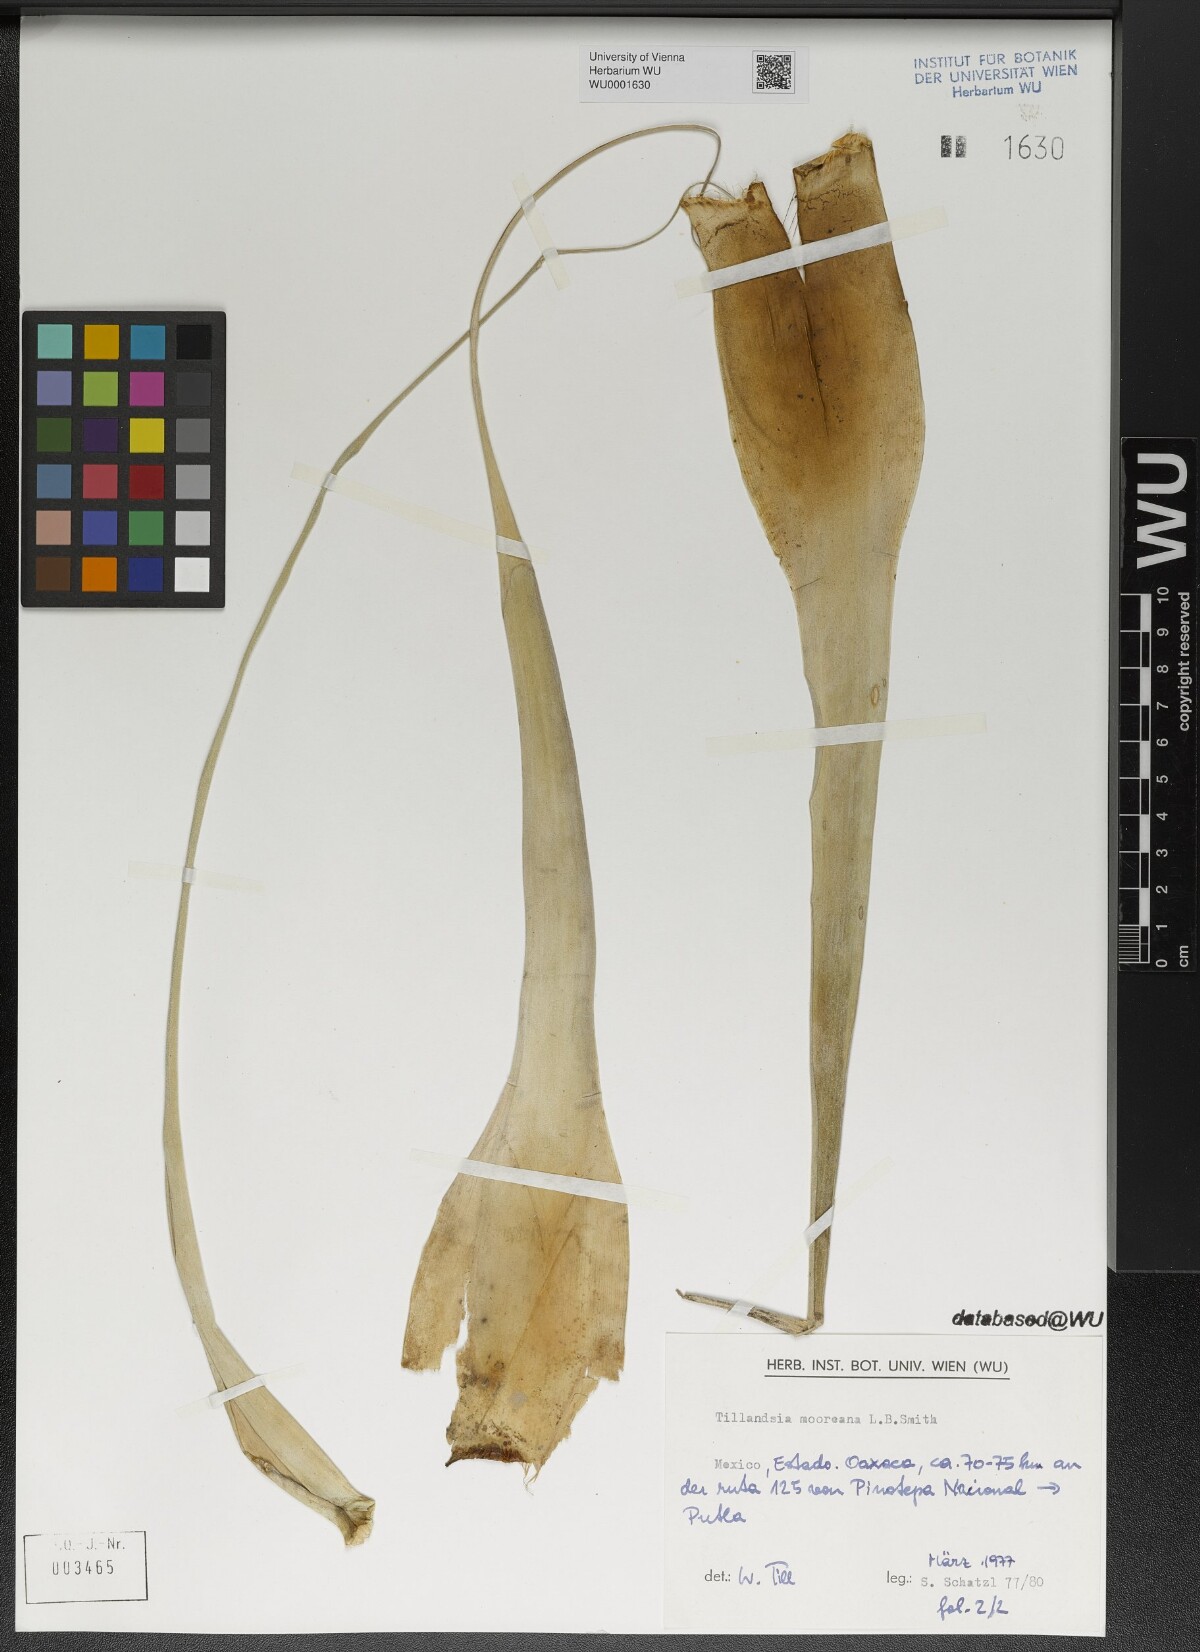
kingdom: Plantae
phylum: Tracheophyta
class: Liliopsida
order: Poales
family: Bromeliaceae
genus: Tillandsia
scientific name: Tillandsia mooreana
